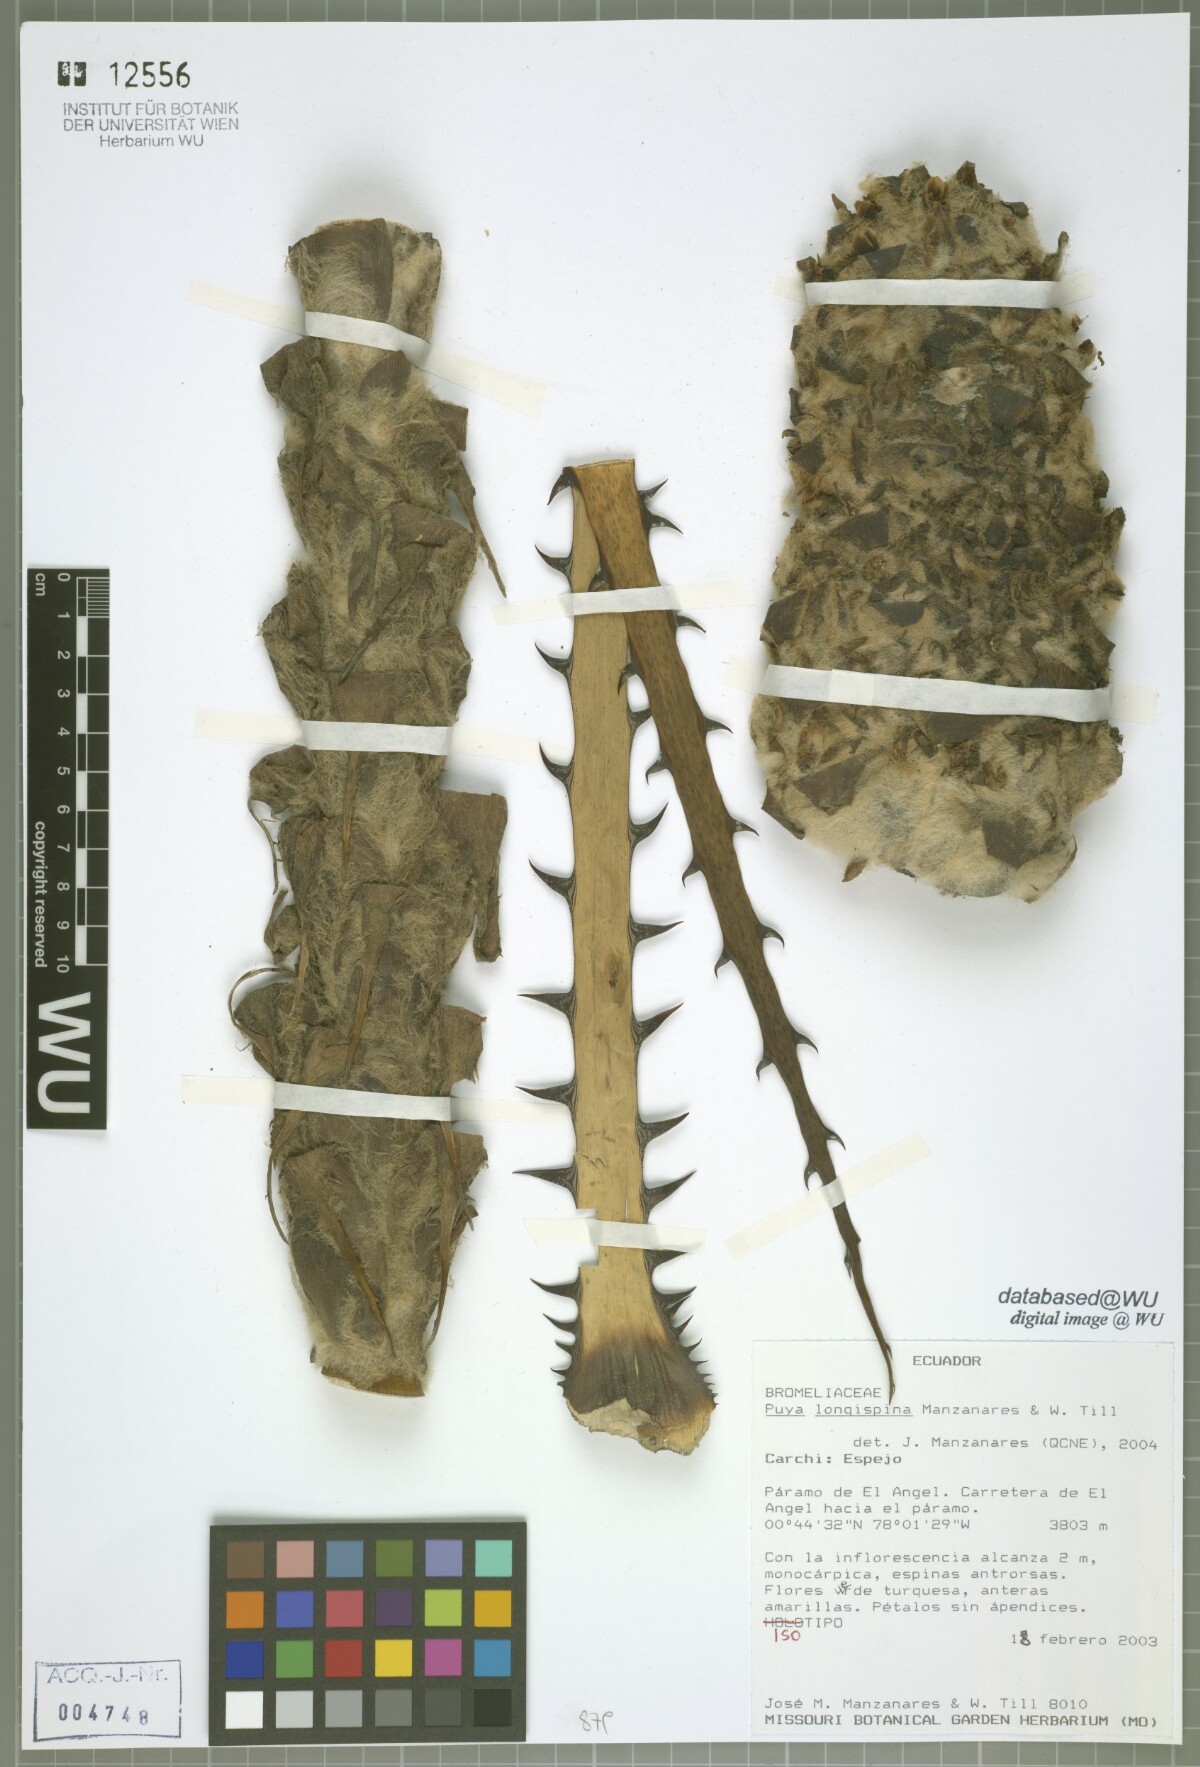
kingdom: Plantae
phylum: Tracheophyta
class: Liliopsida
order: Poales
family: Bromeliaceae
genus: Puya
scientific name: Puya longispina
